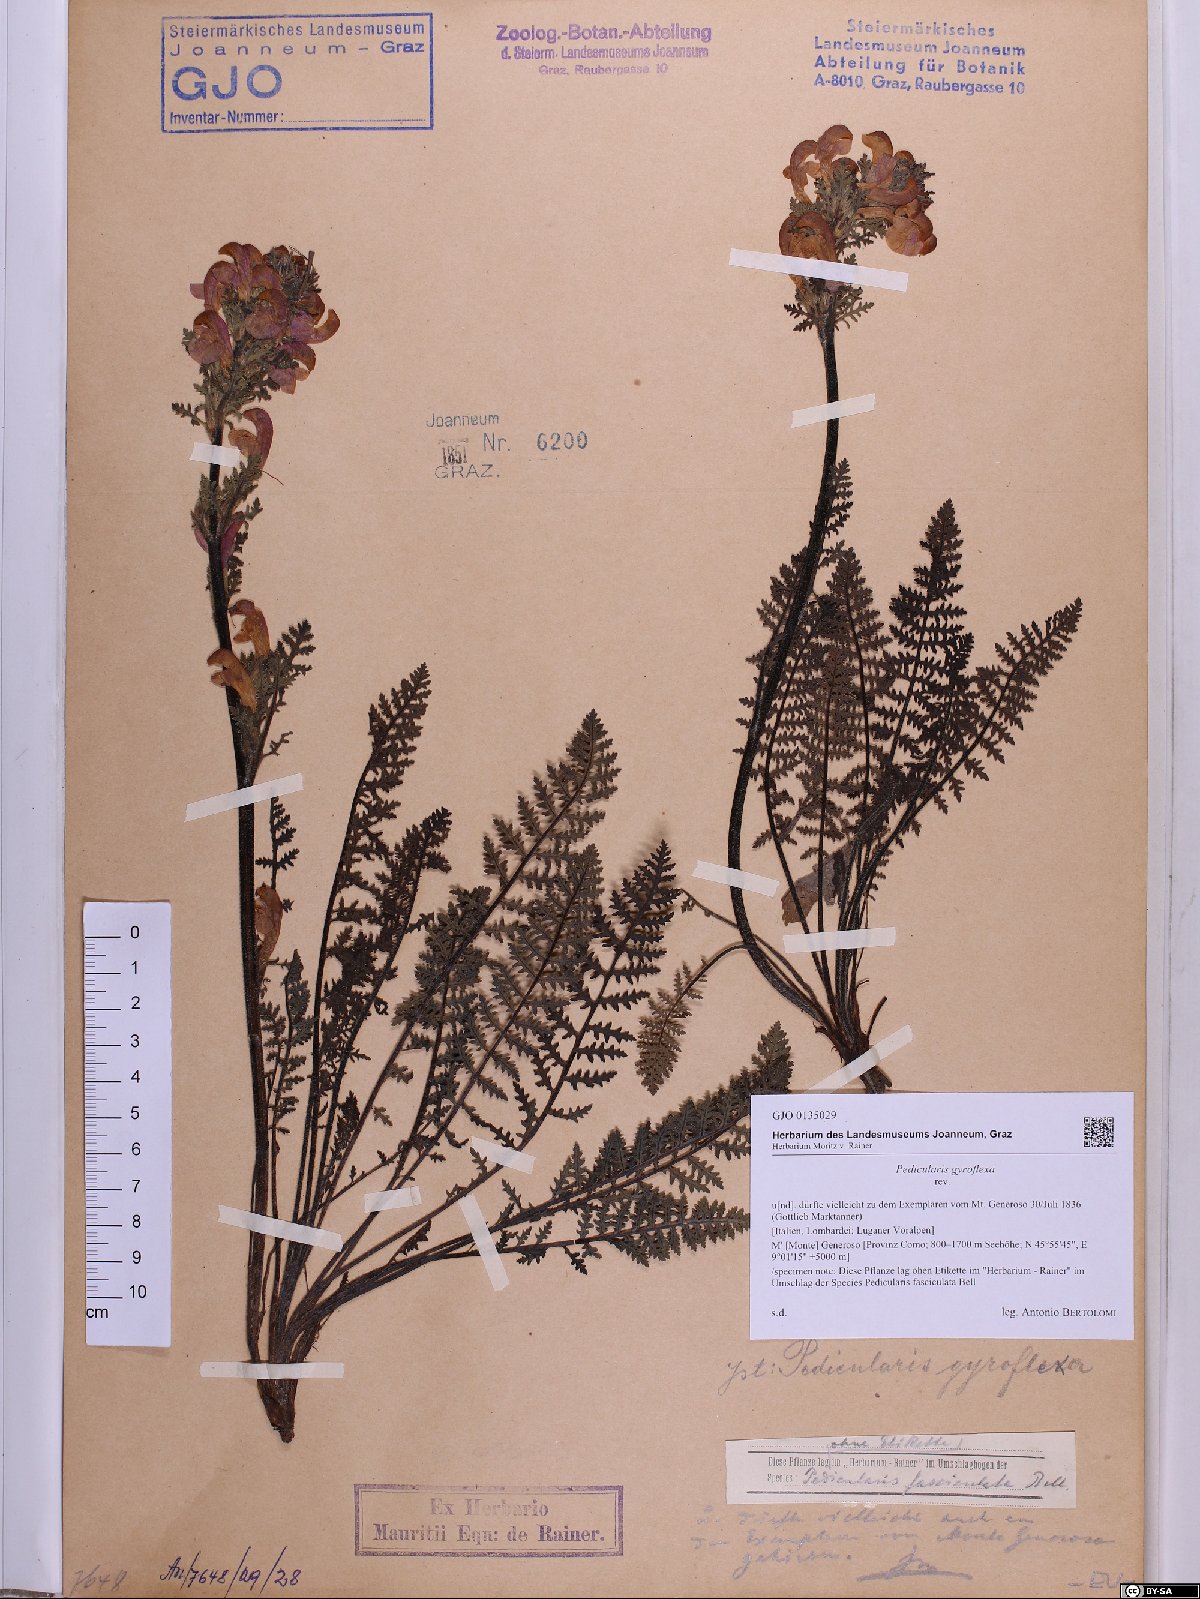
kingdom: Plantae
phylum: Tracheophyta
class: Magnoliopsida
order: Lamiales
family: Orobanchaceae
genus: Pedicularis
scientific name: Pedicularis gyroflexa
